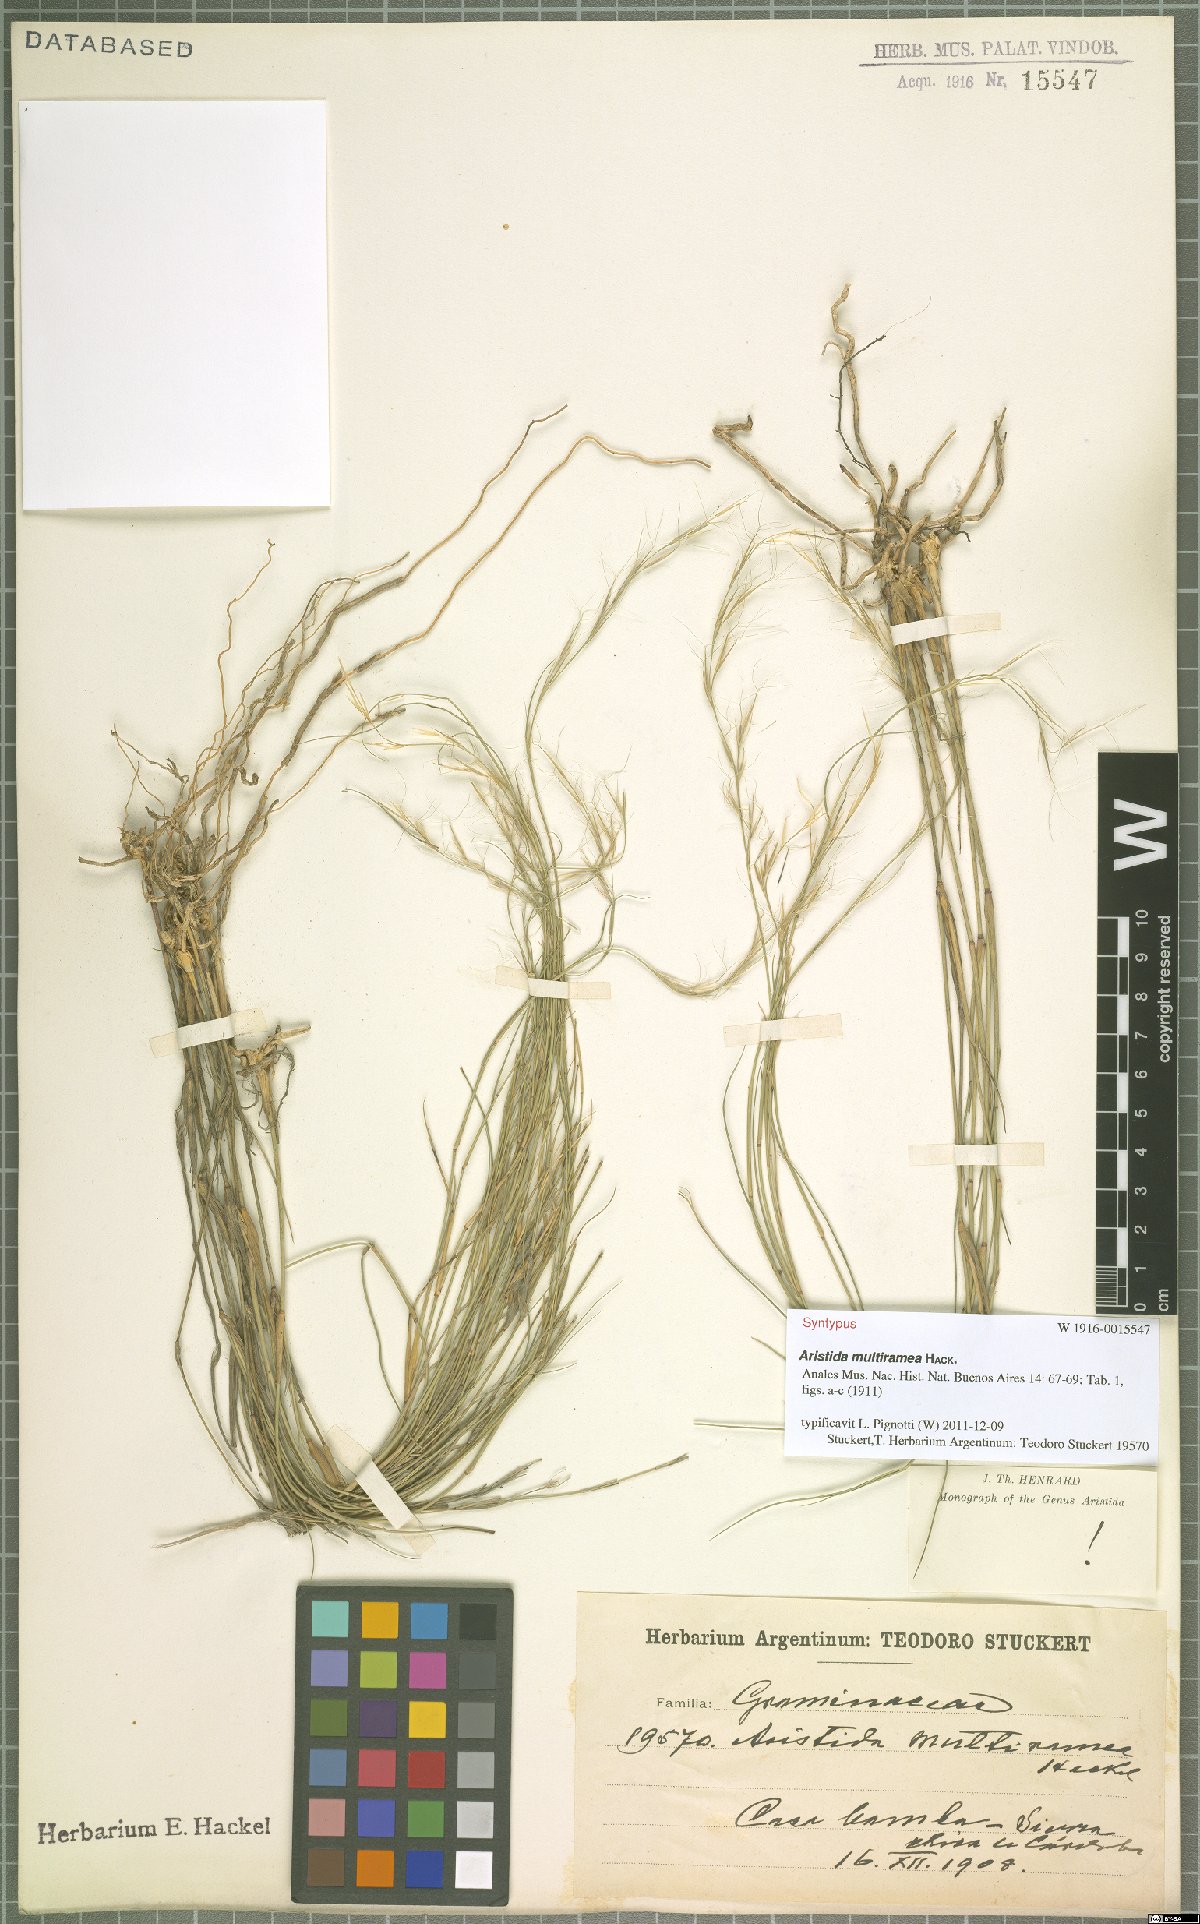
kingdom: Plantae
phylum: Tracheophyta
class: Liliopsida
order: Poales
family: Poaceae
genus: Aristida
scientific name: Aristida multiramea
